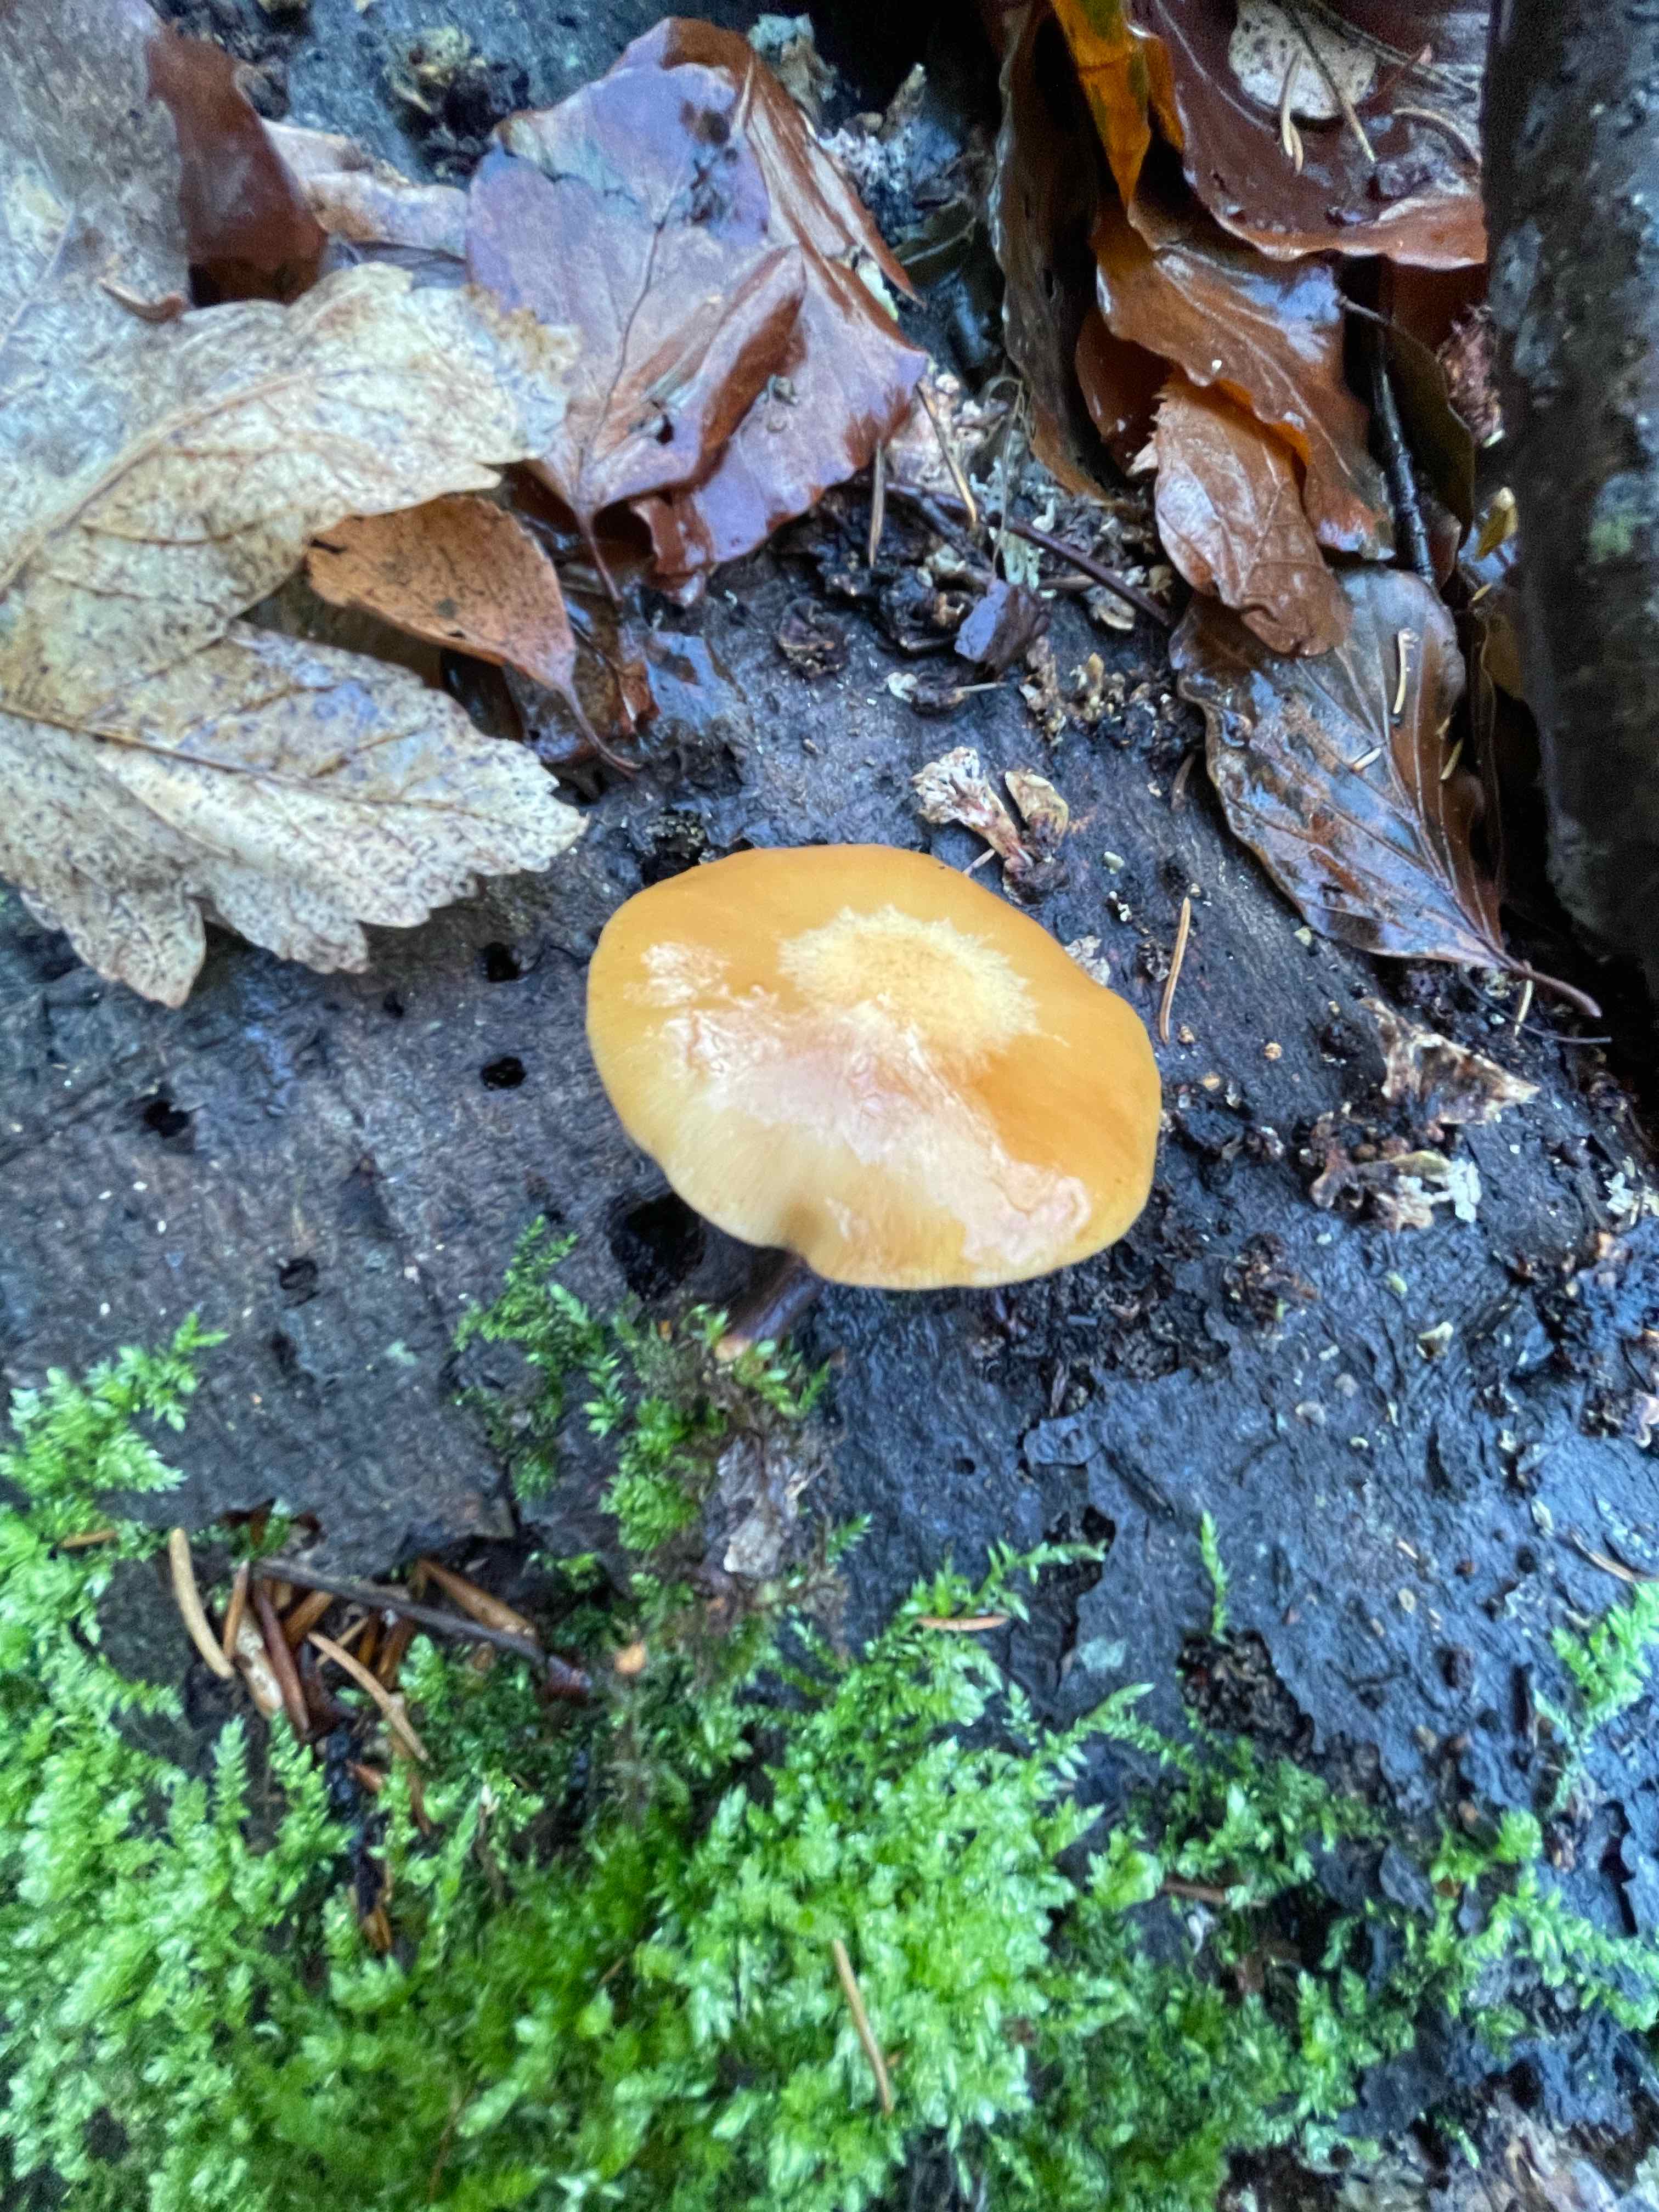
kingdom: Fungi
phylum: Basidiomycota
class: Agaricomycetes
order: Agaricales
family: Strophariaceae
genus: Kuehneromyces
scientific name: Kuehneromyces mutabilis
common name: foranderlig skælhat
